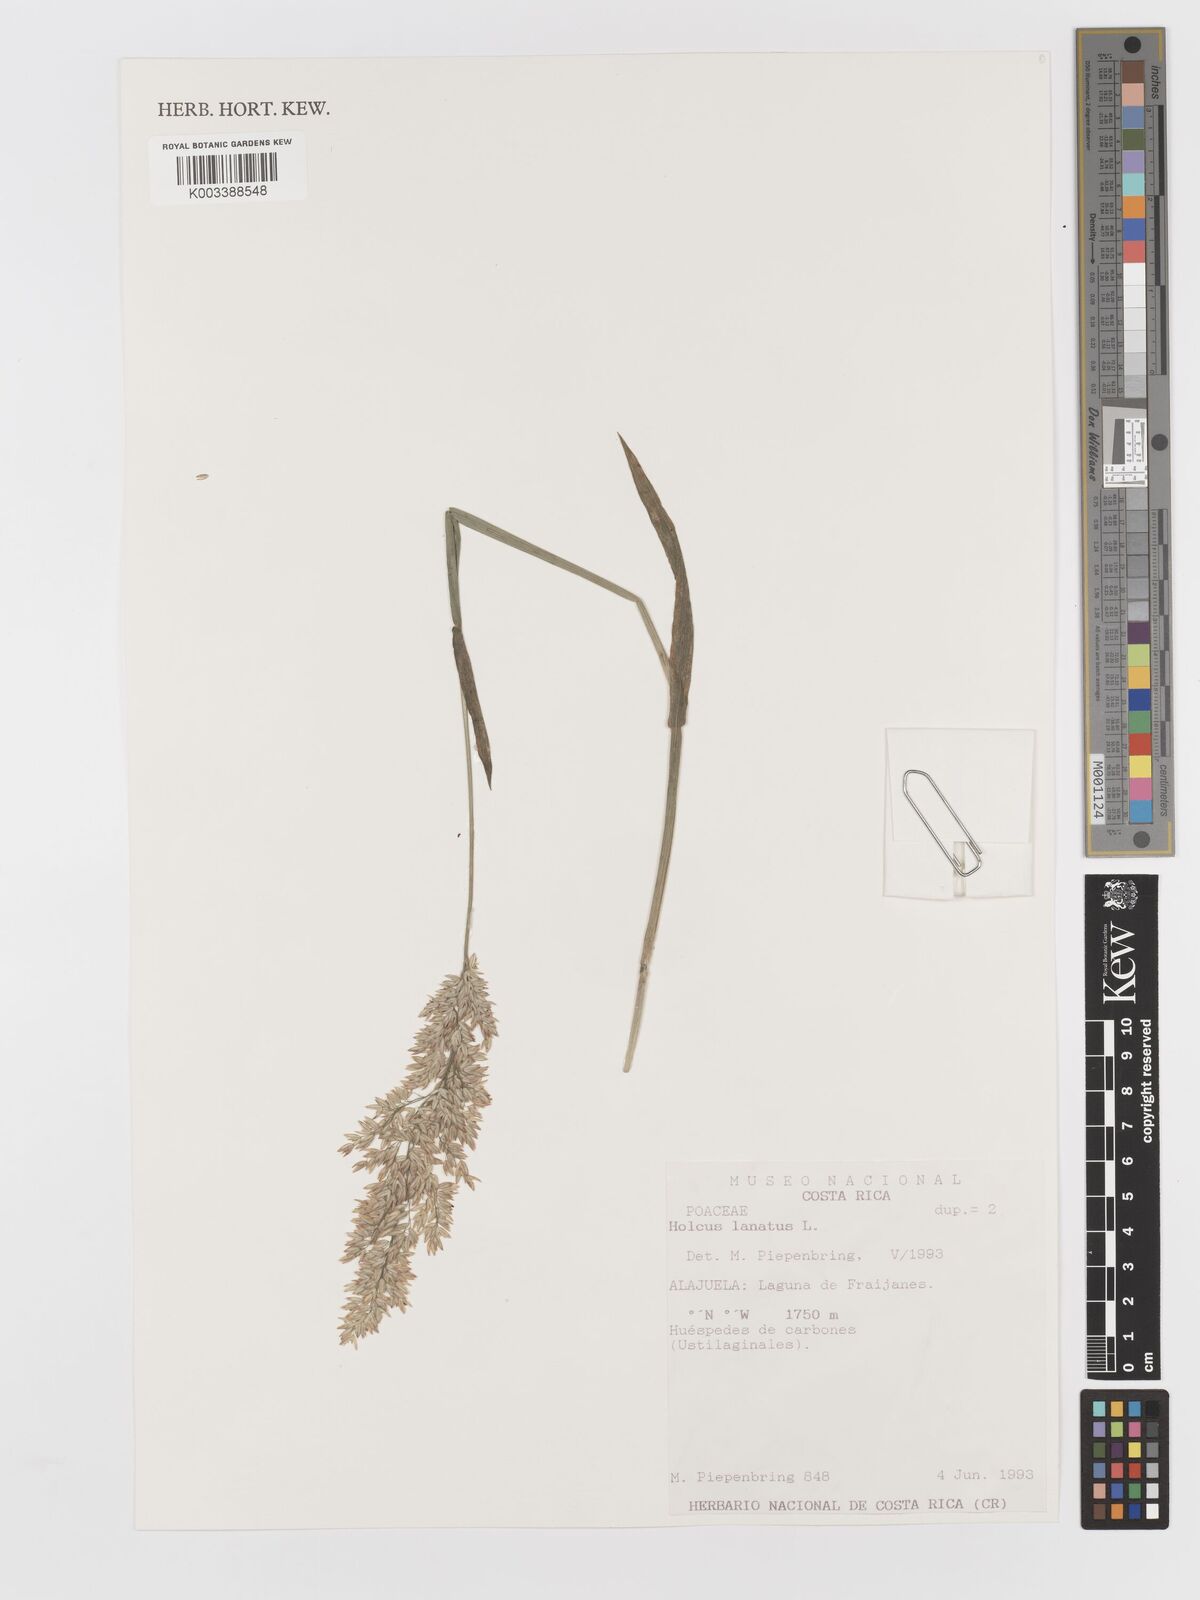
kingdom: Plantae
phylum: Tracheophyta
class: Liliopsida
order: Poales
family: Poaceae
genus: Holcus
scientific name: Holcus lanatus
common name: Yorkshire-fog
